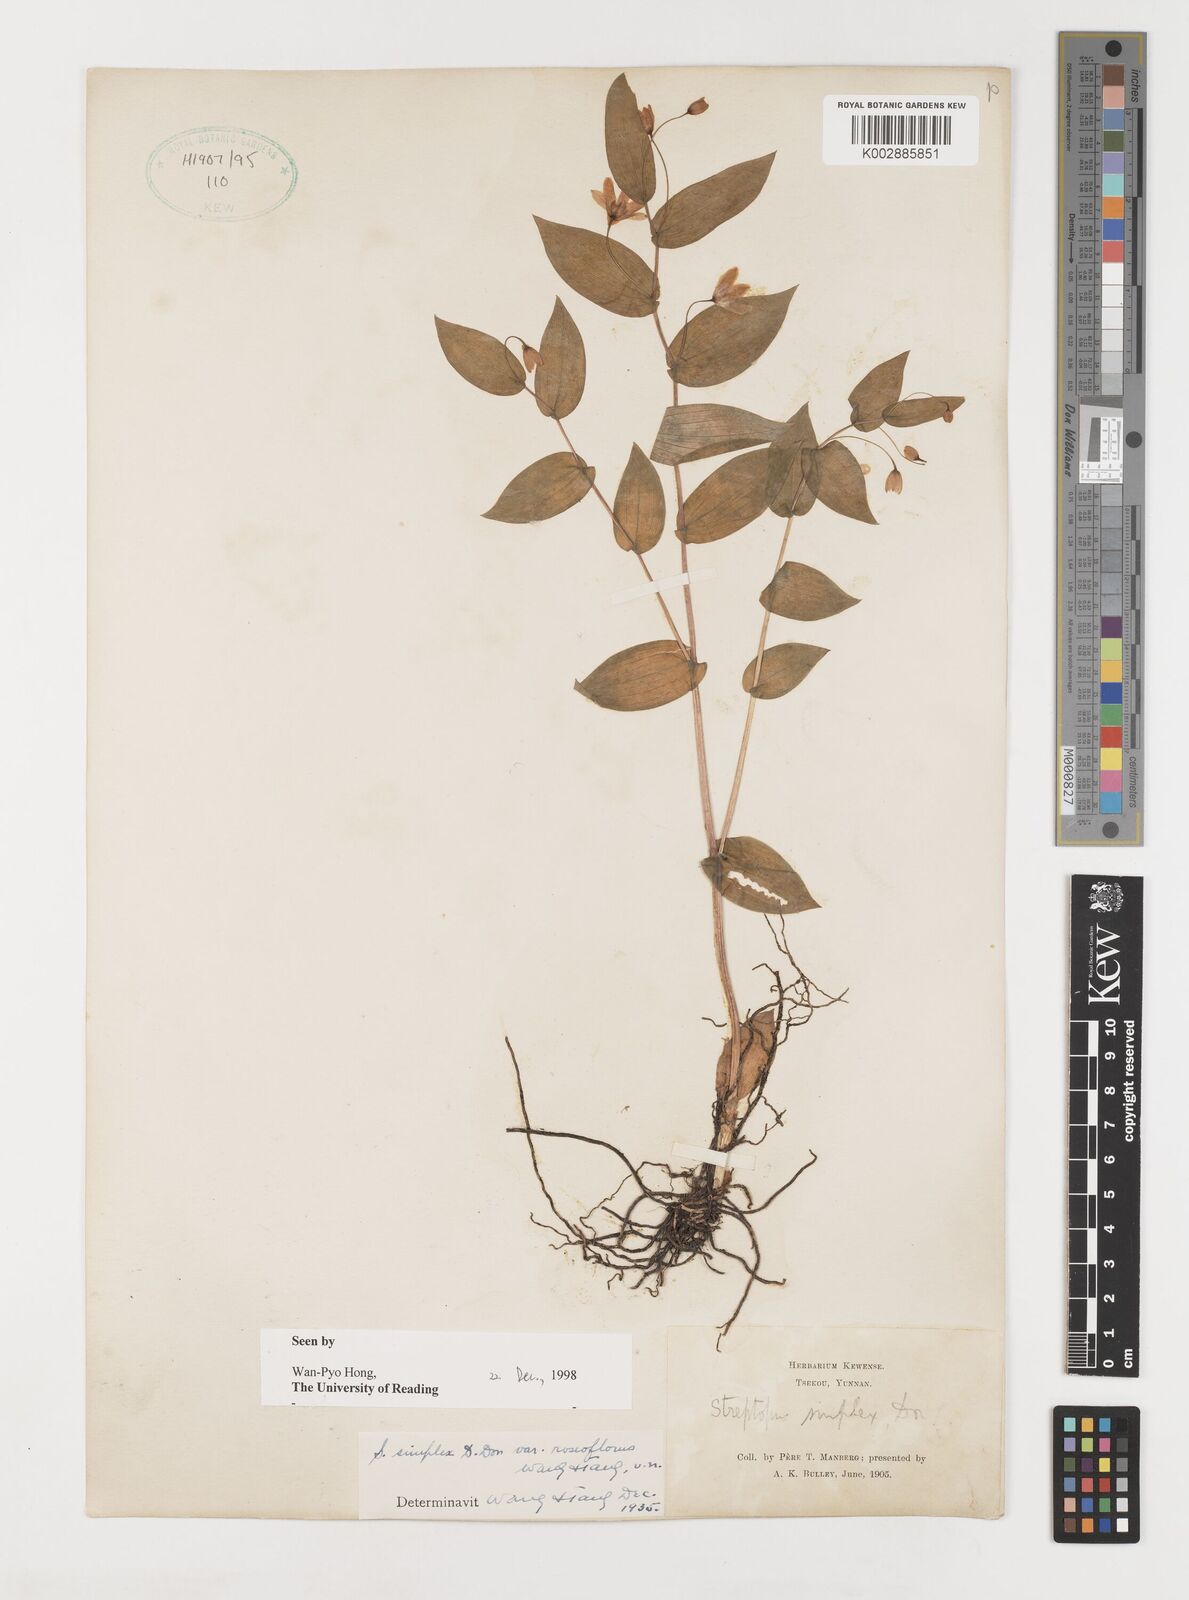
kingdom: Plantae
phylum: Tracheophyta
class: Liliopsida
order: Liliales
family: Liliaceae
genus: Streptopus
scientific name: Streptopus simplex
